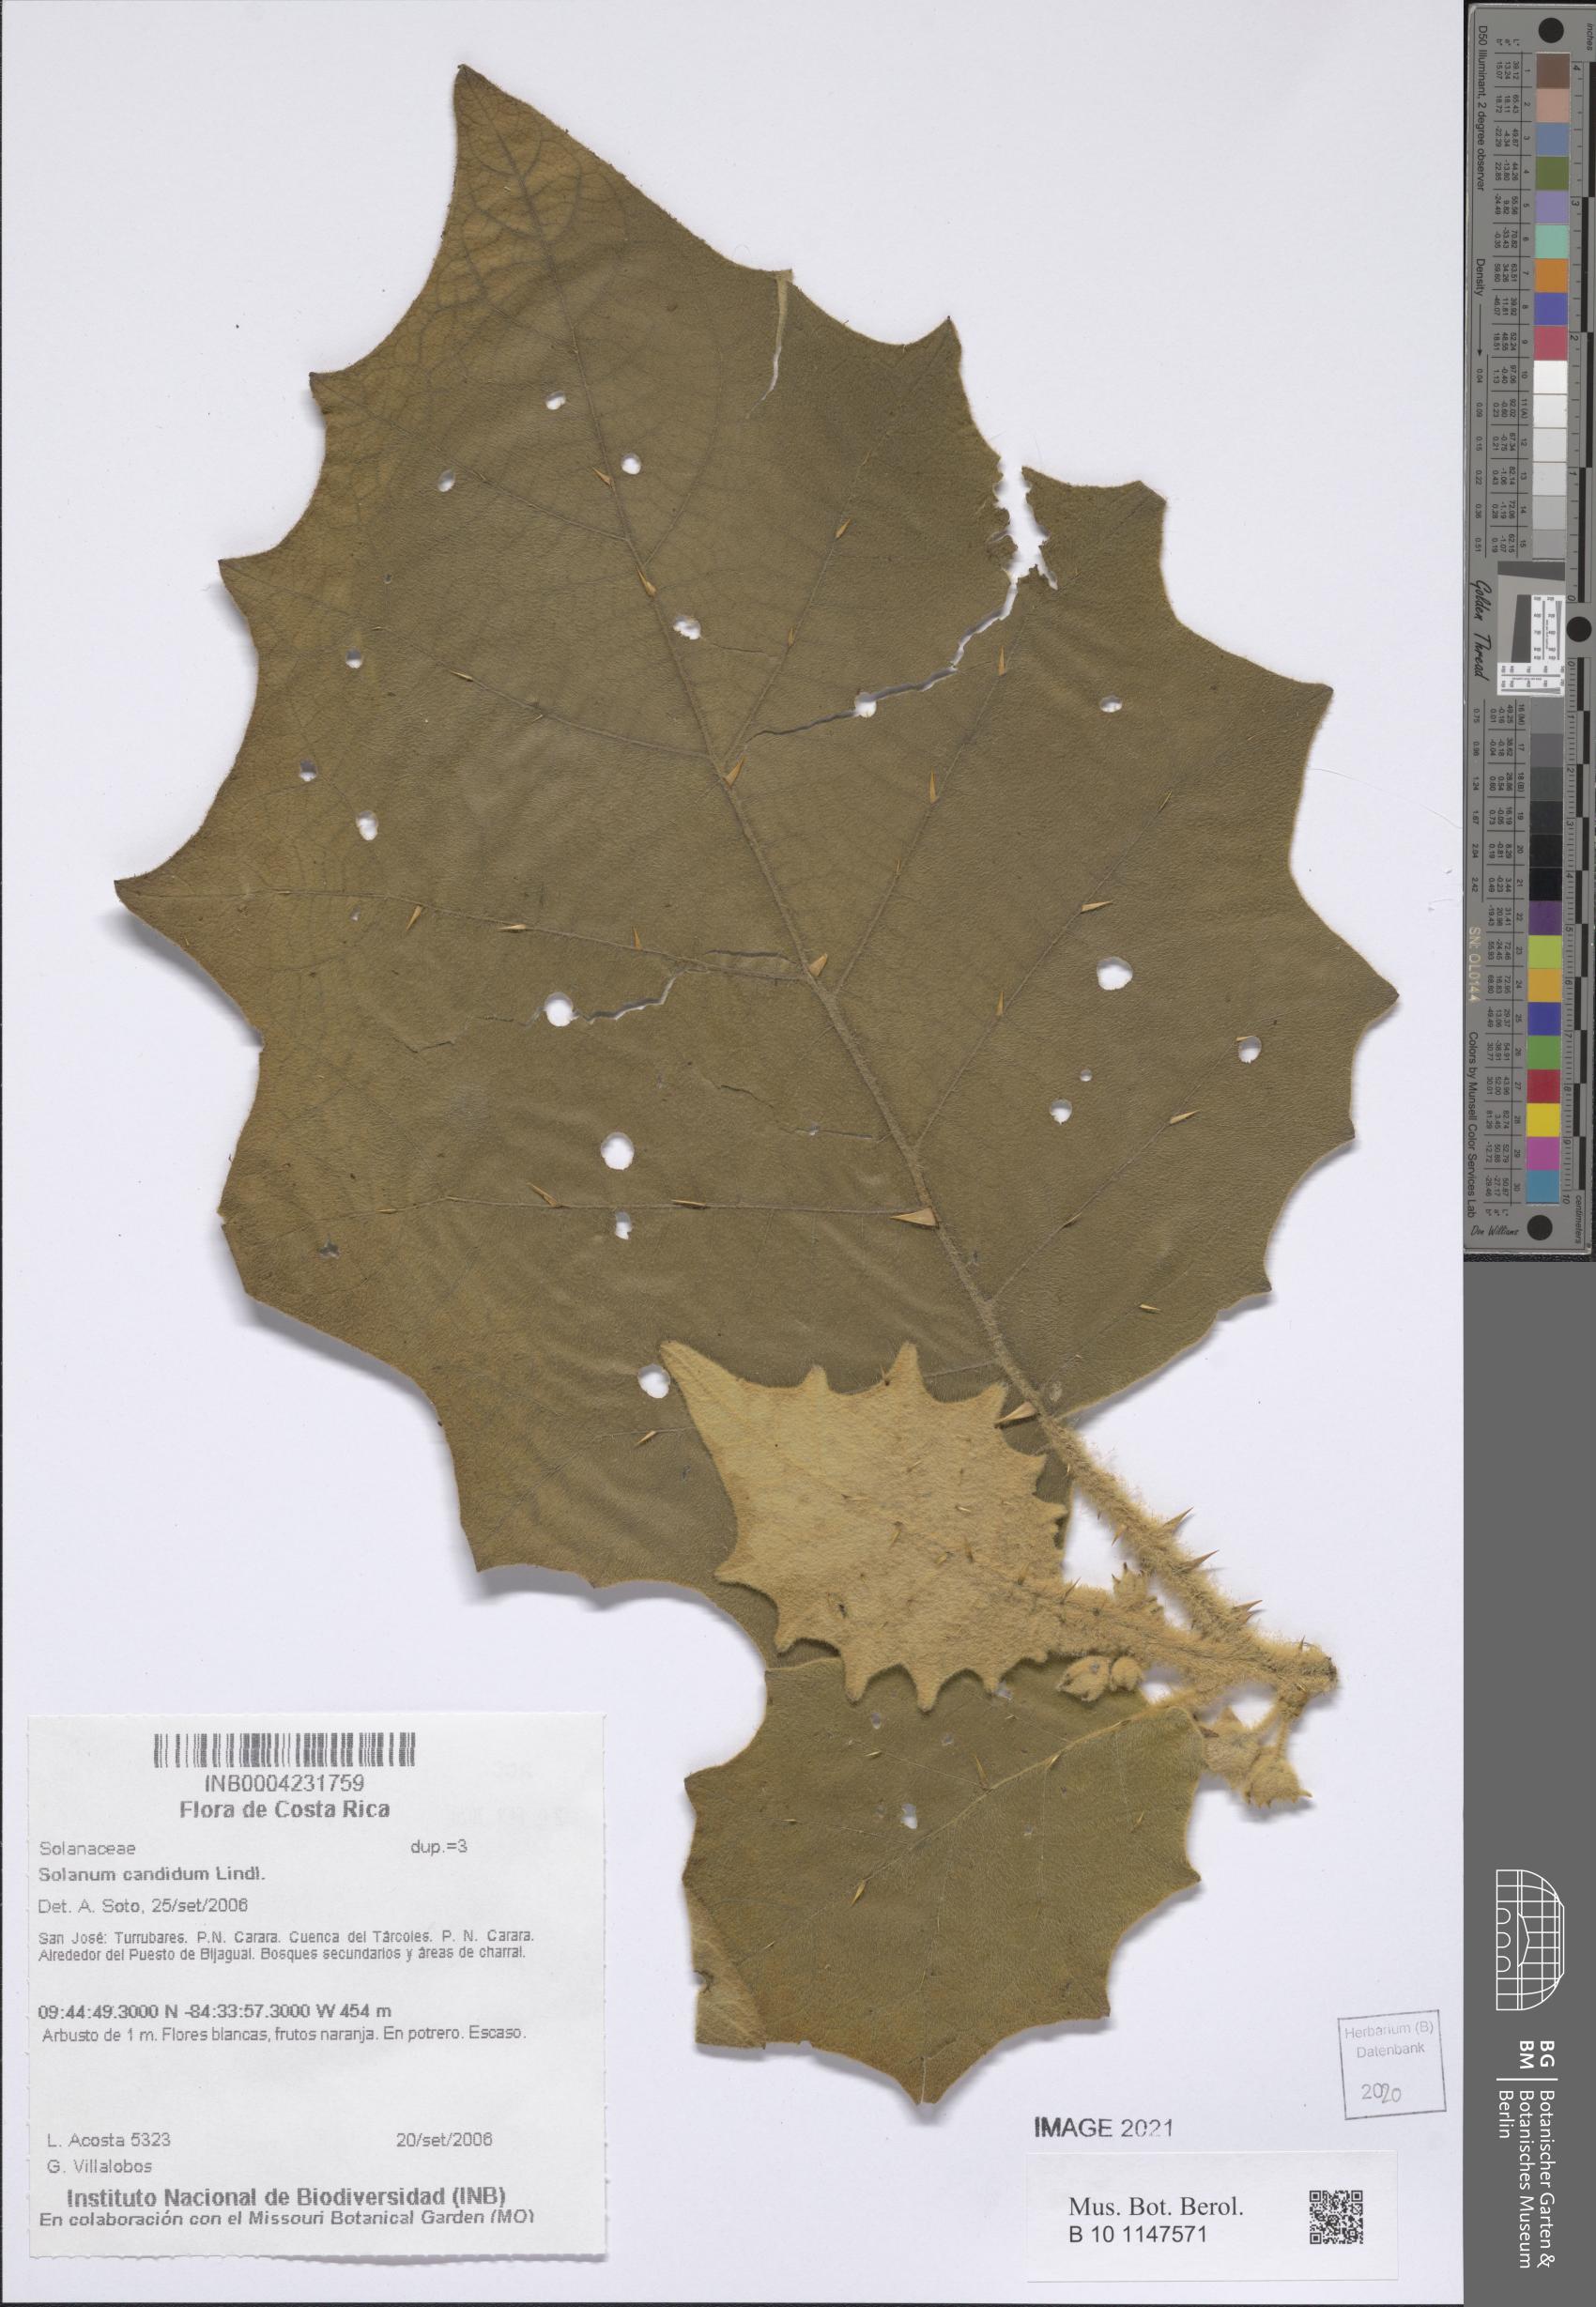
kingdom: Plantae
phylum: Tracheophyta
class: Magnoliopsida
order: Solanales
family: Solanaceae
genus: Solanum
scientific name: Solanum candidum
